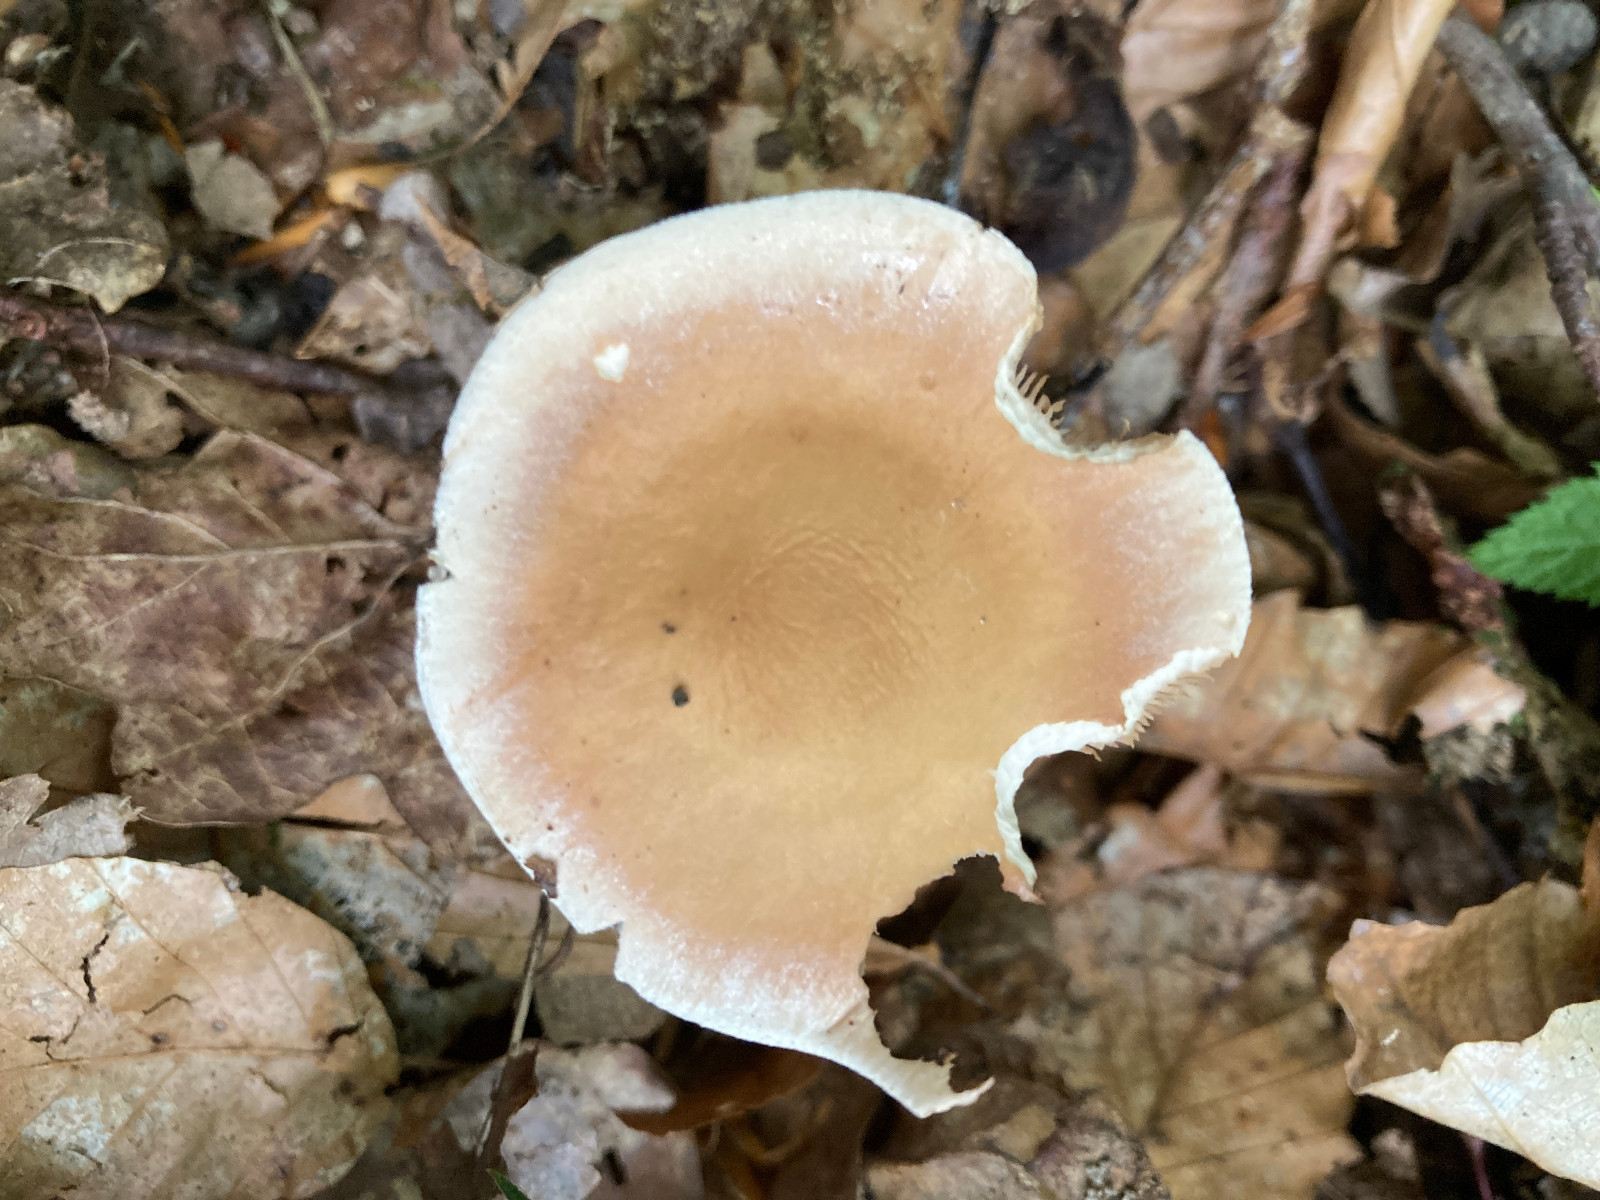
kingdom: Fungi
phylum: Basidiomycota
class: Agaricomycetes
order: Agaricales
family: Hymenogastraceae
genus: Hebeloma
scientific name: Hebeloma
